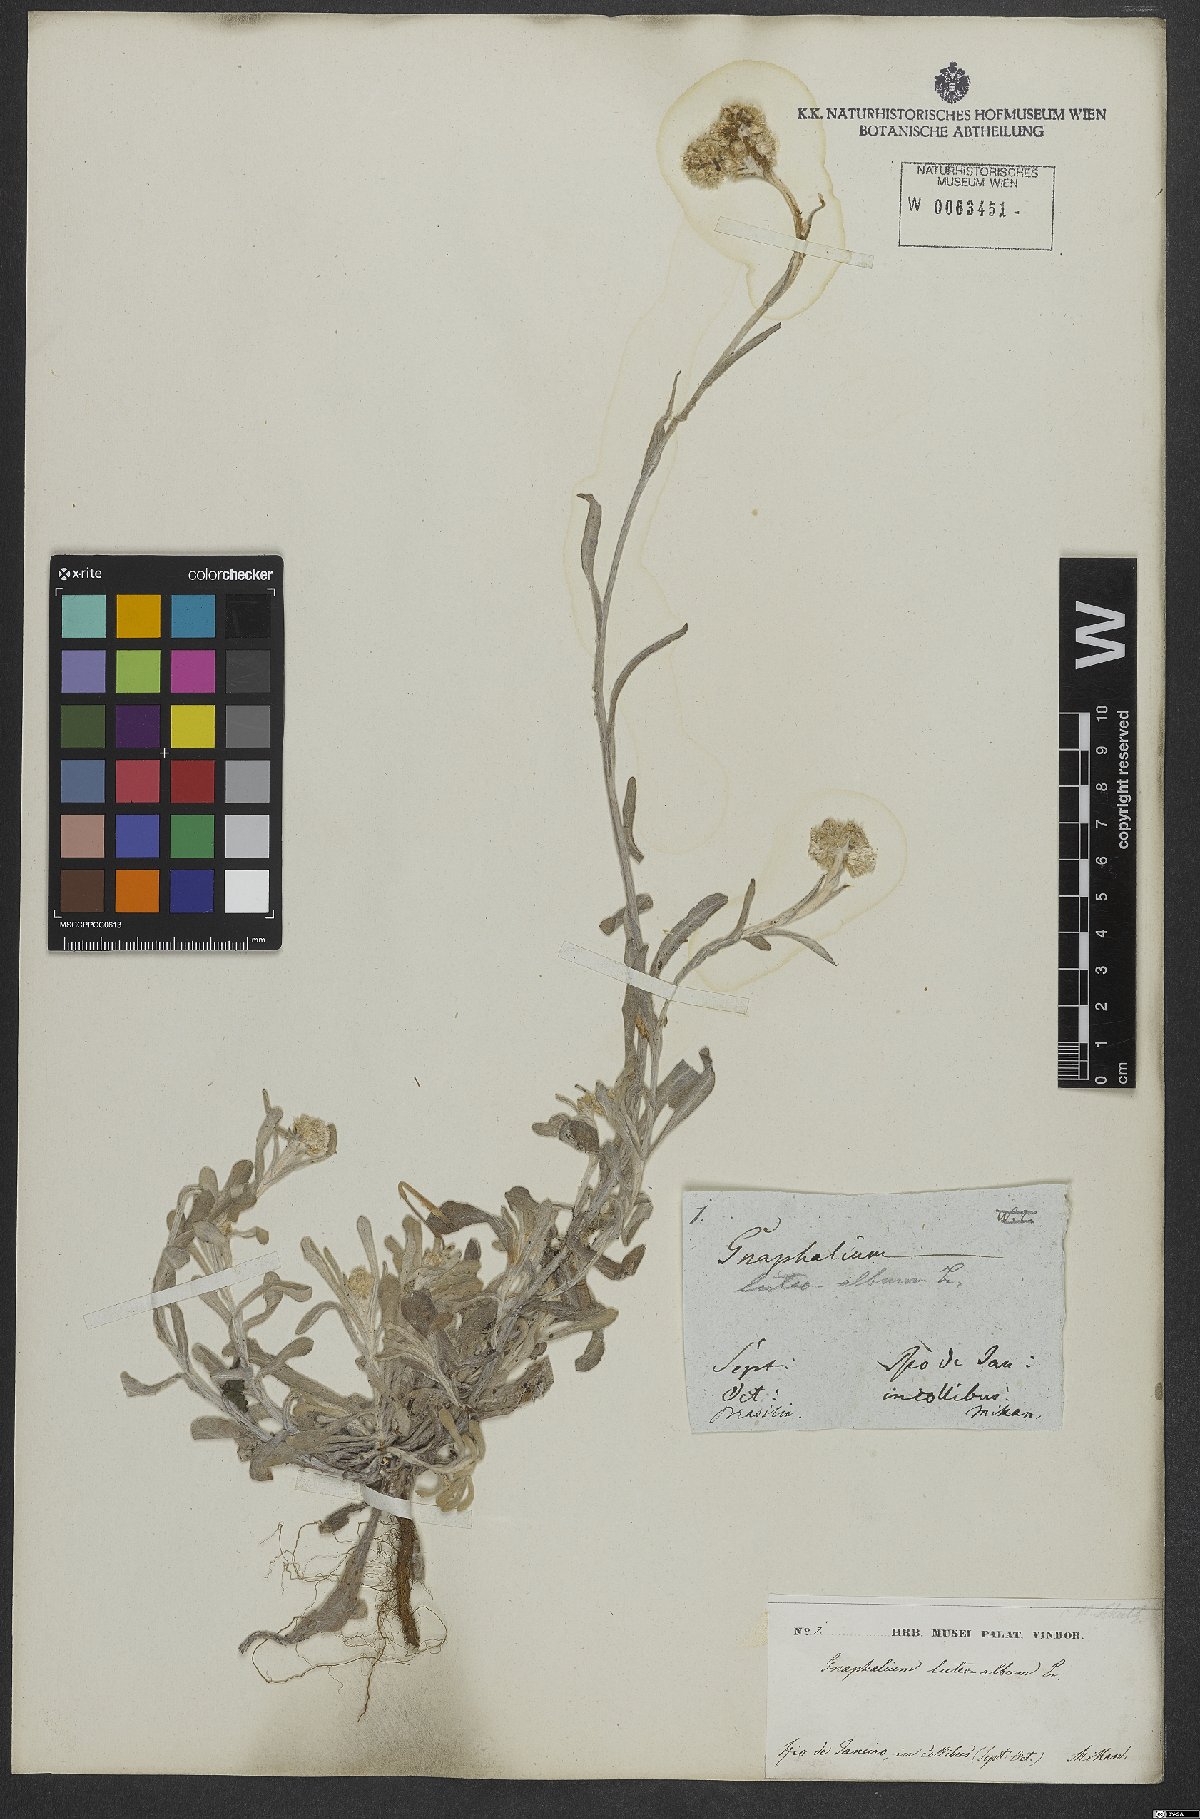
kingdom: Plantae
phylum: Tracheophyta
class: Magnoliopsida
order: Asterales
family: Asteraceae
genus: Helichrysum
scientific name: Helichrysum luteoalbum
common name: Daisy
